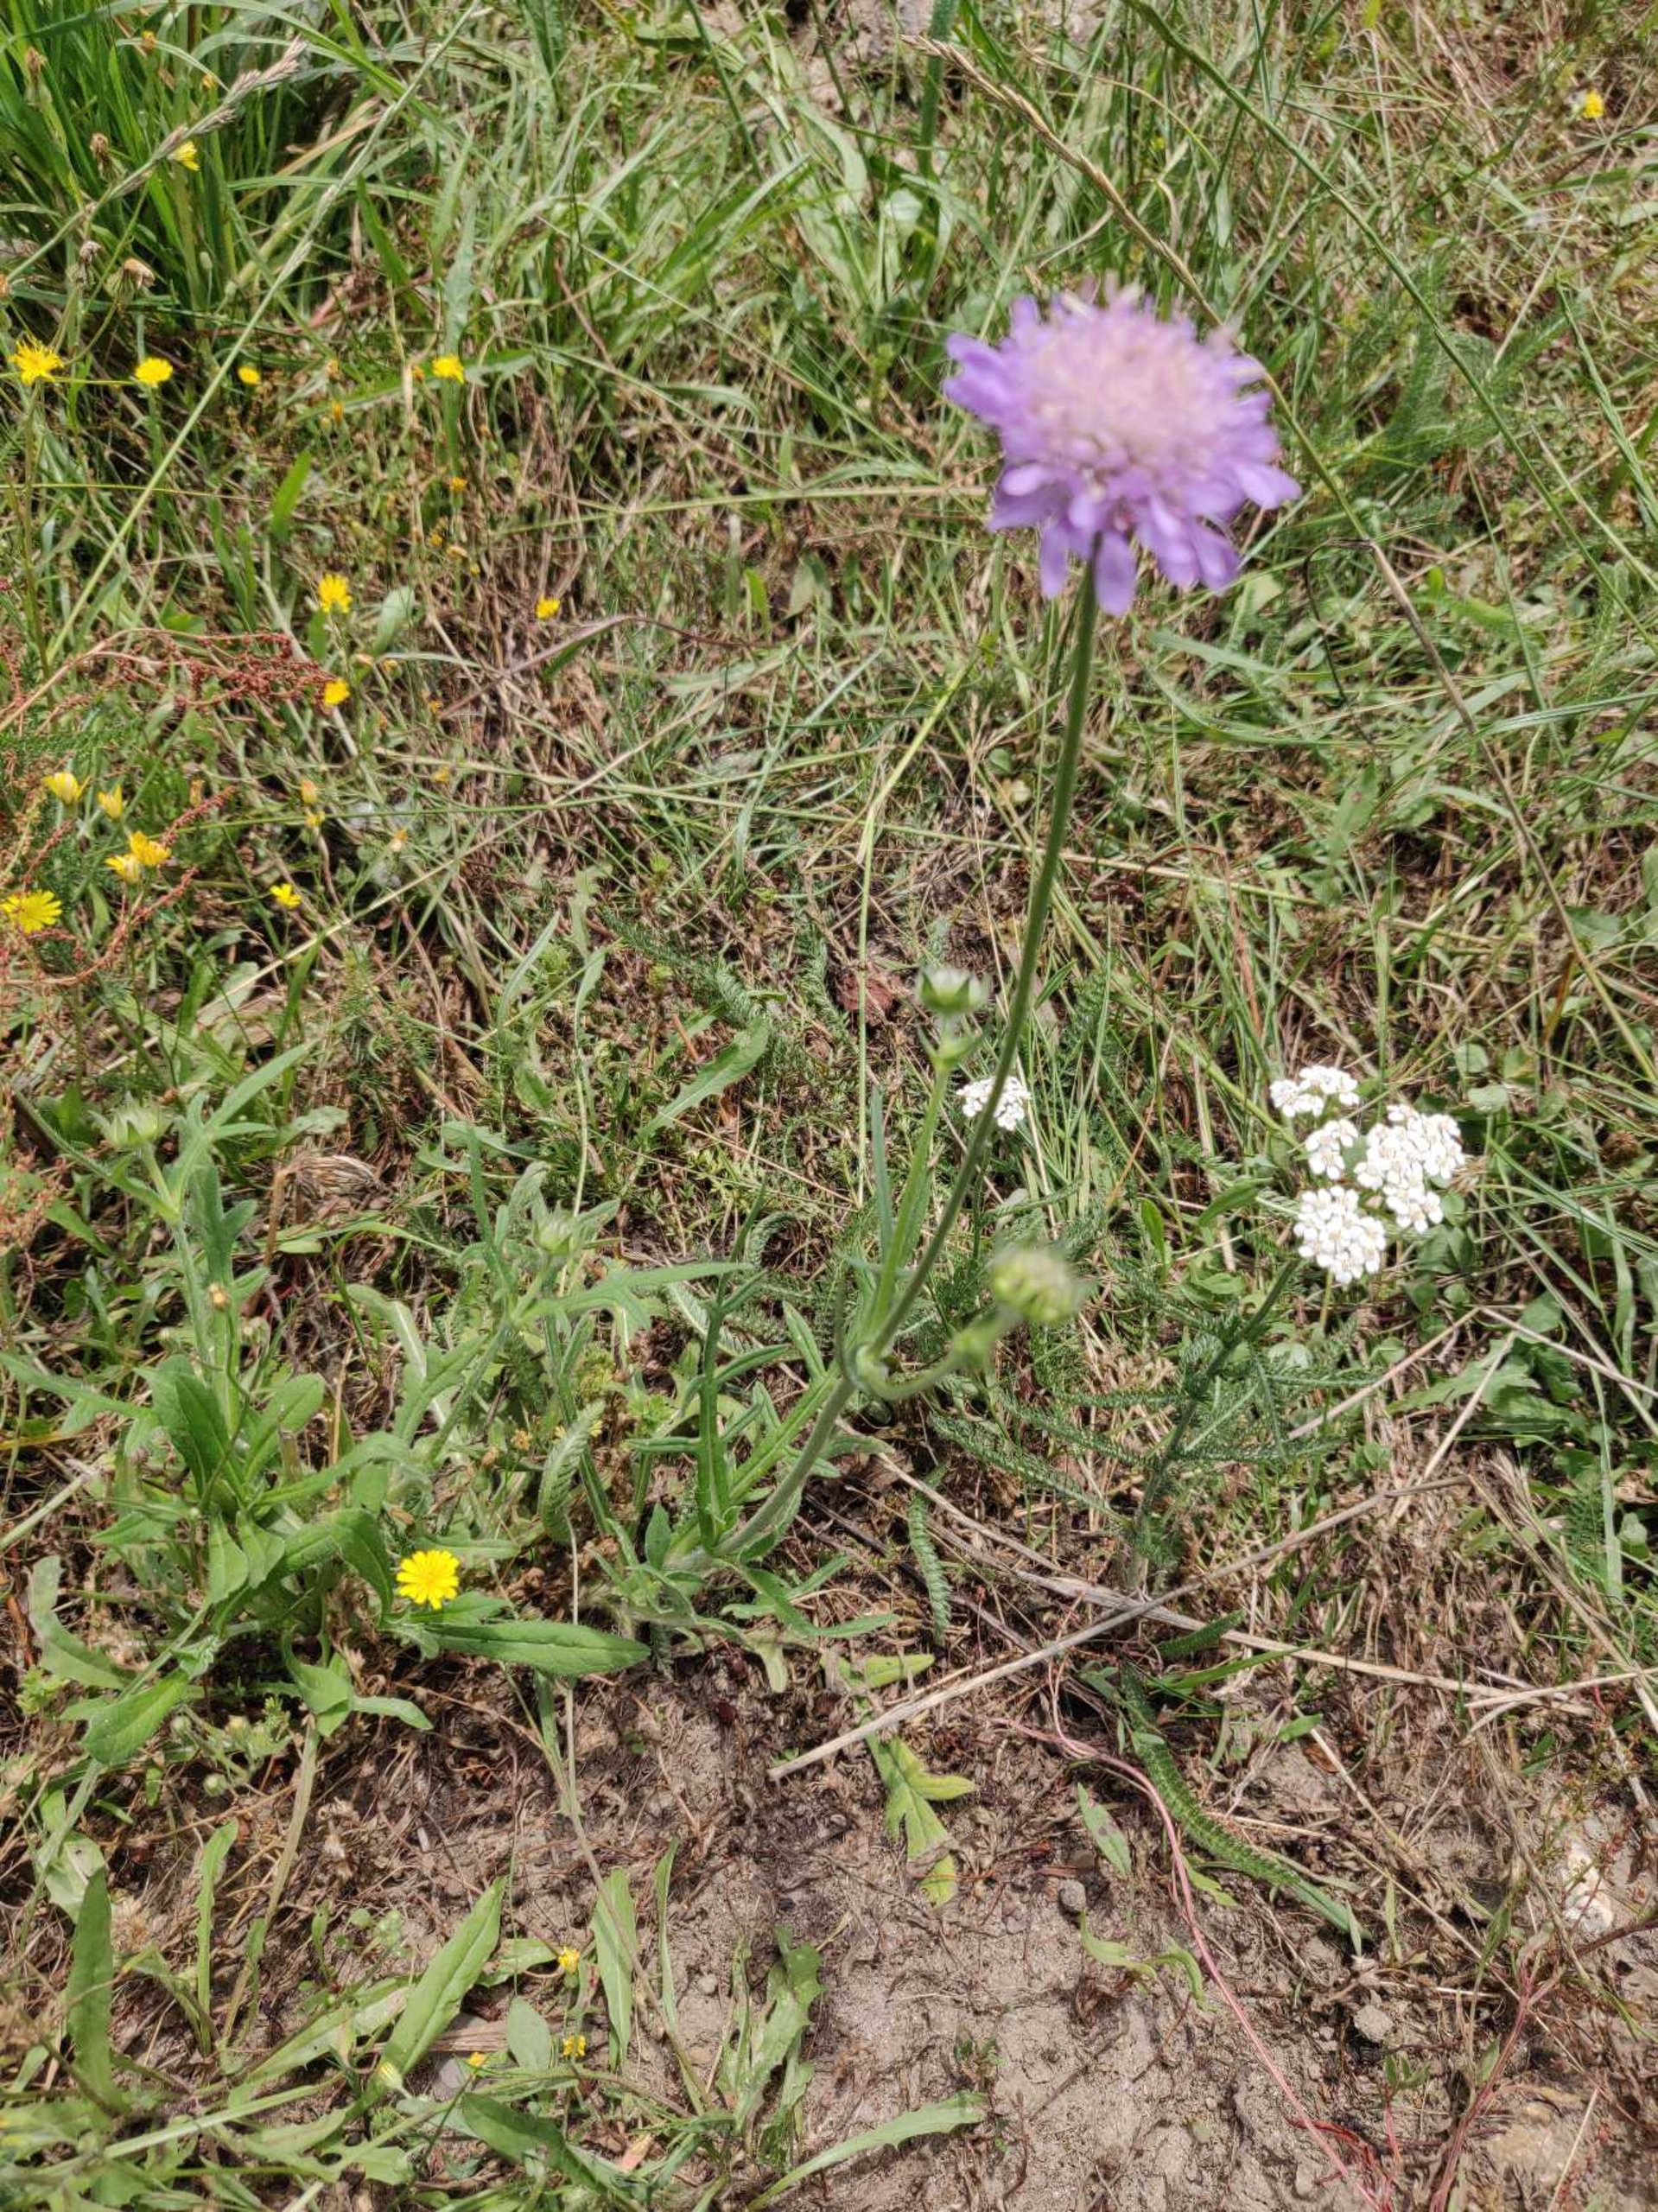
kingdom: Plantae
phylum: Tracheophyta
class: Magnoliopsida
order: Dipsacales
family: Caprifoliaceae
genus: Knautia
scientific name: Knautia arvensis
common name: Blåhat
